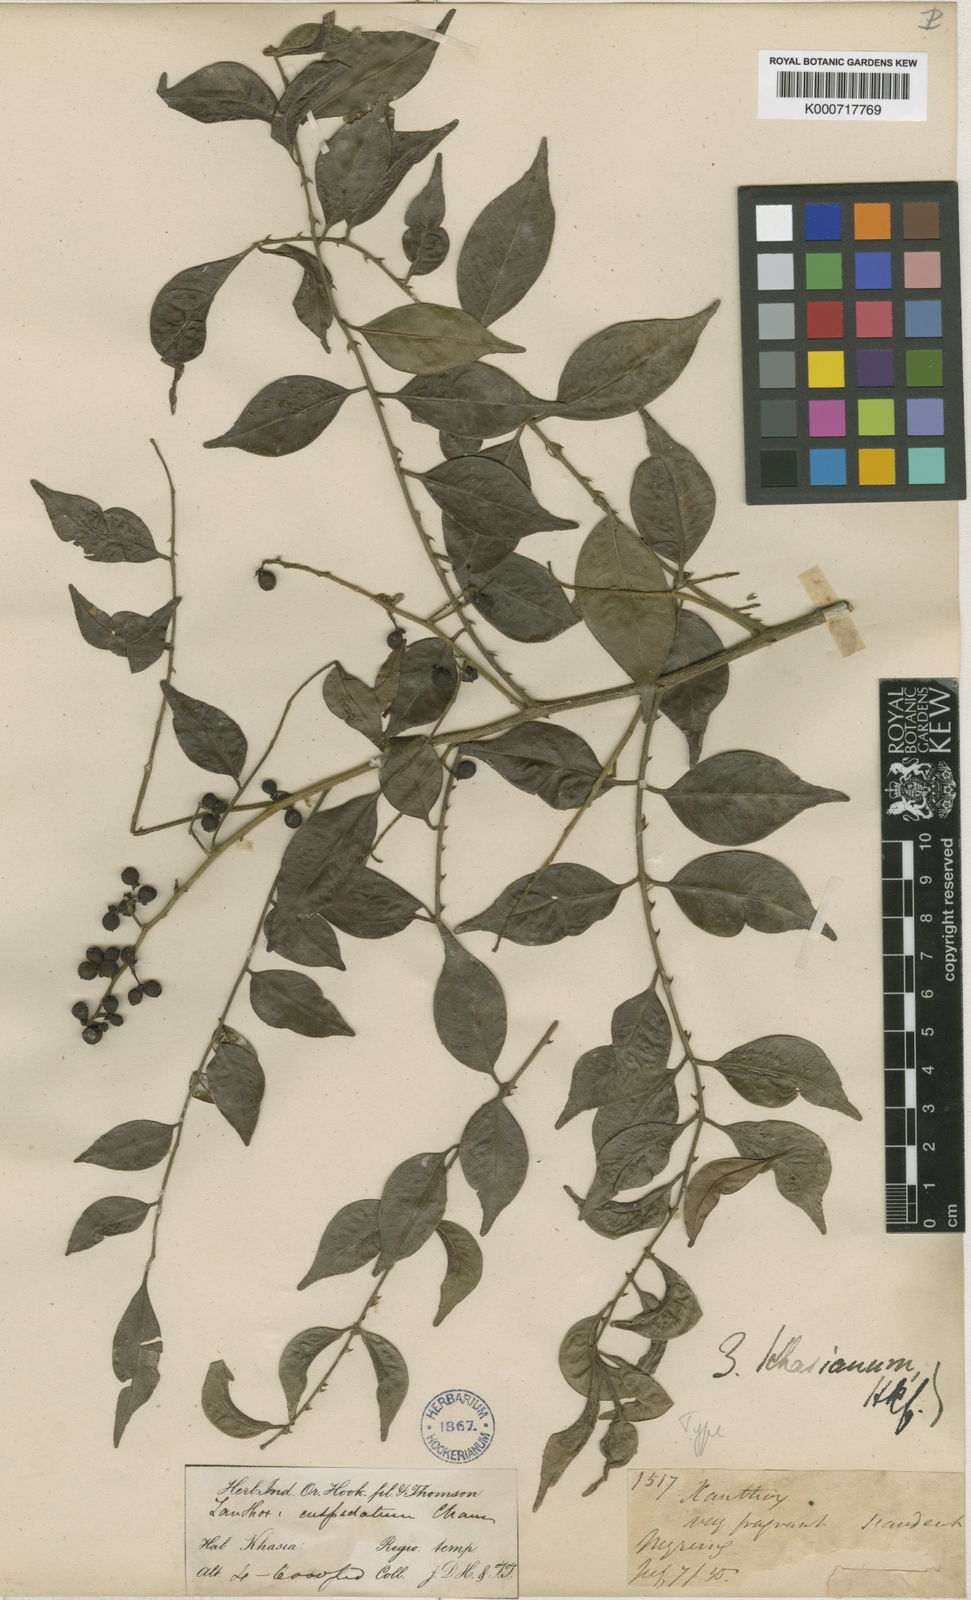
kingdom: Plantae
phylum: Tracheophyta
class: Magnoliopsida
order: Sapindales
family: Rutaceae
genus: Zanthoxylum
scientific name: Zanthoxylum scandens
